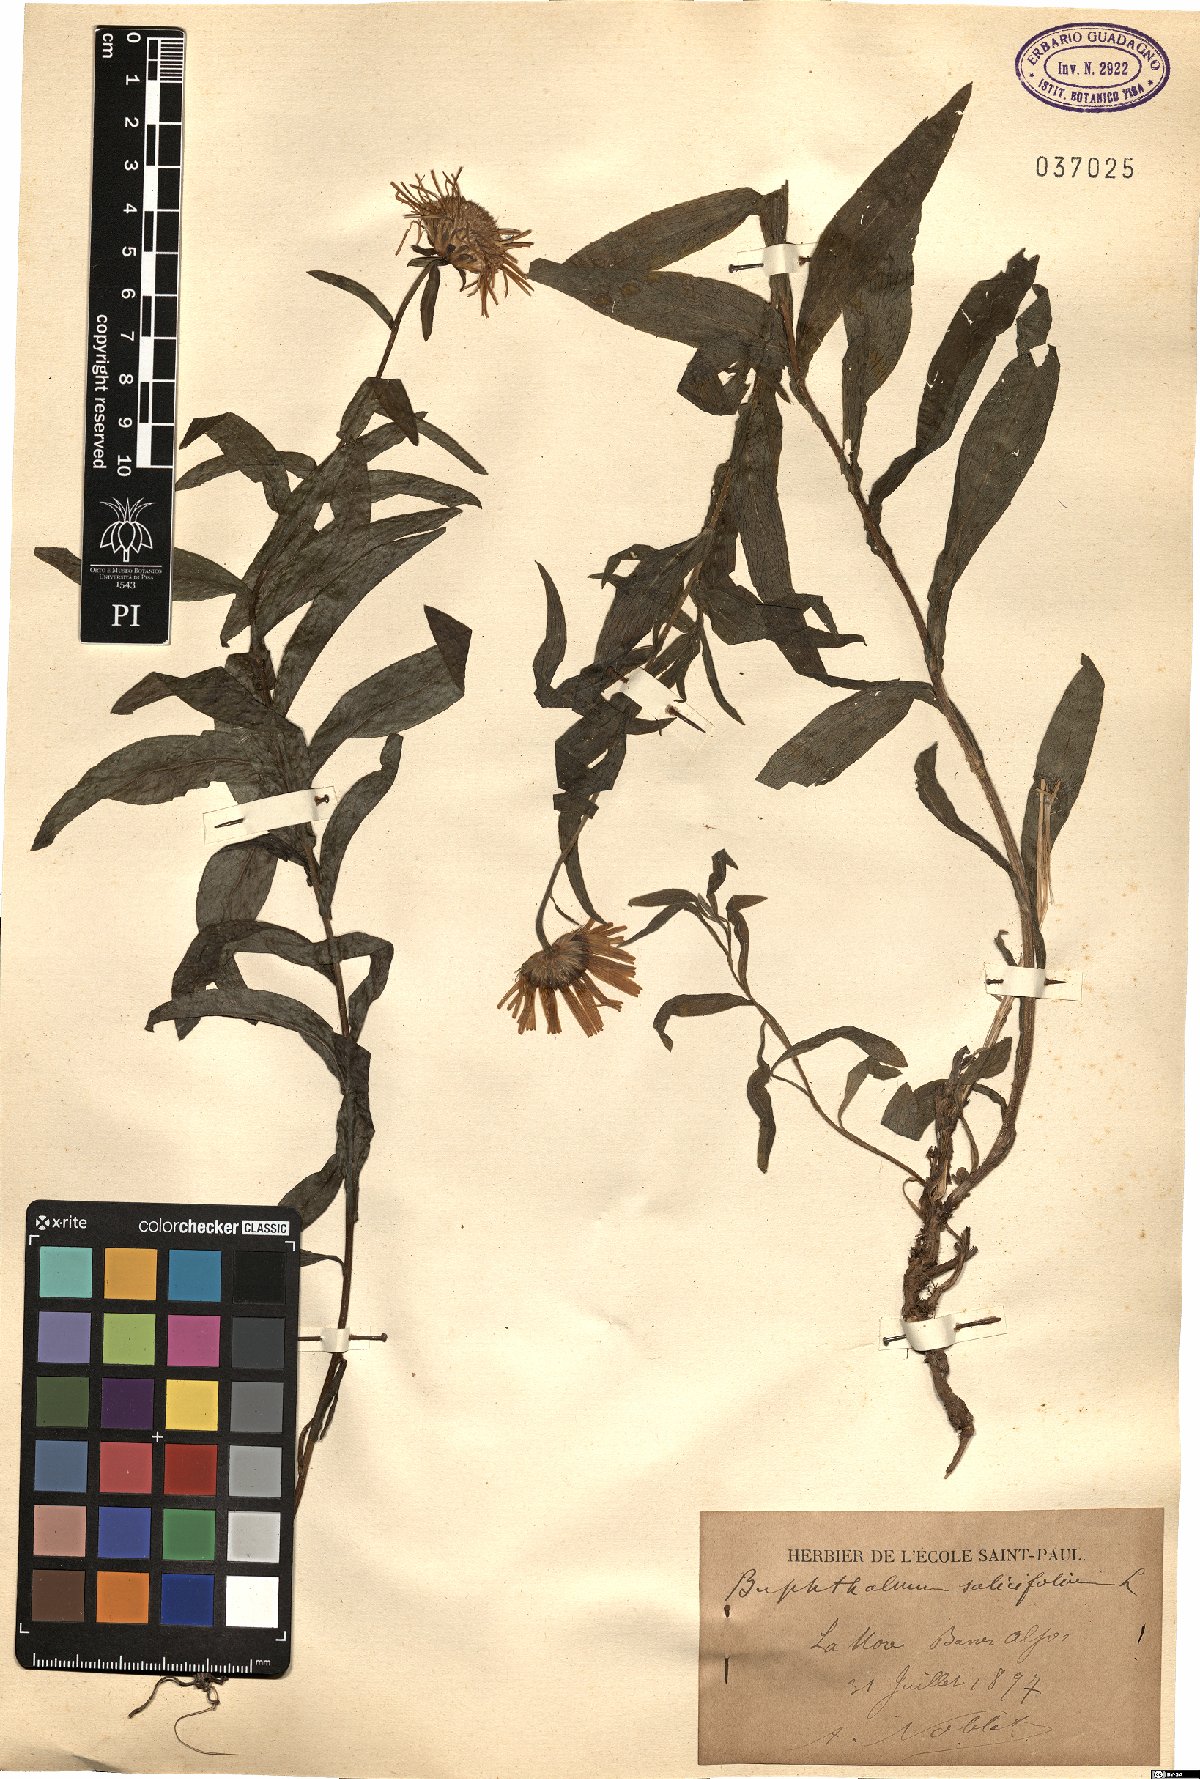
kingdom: Plantae
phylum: Tracheophyta
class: Magnoliopsida
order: Asterales
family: Asteraceae
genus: Buphthalmum
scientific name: Buphthalmum salicifolium
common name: Willow-leaved yellow-oxeye
